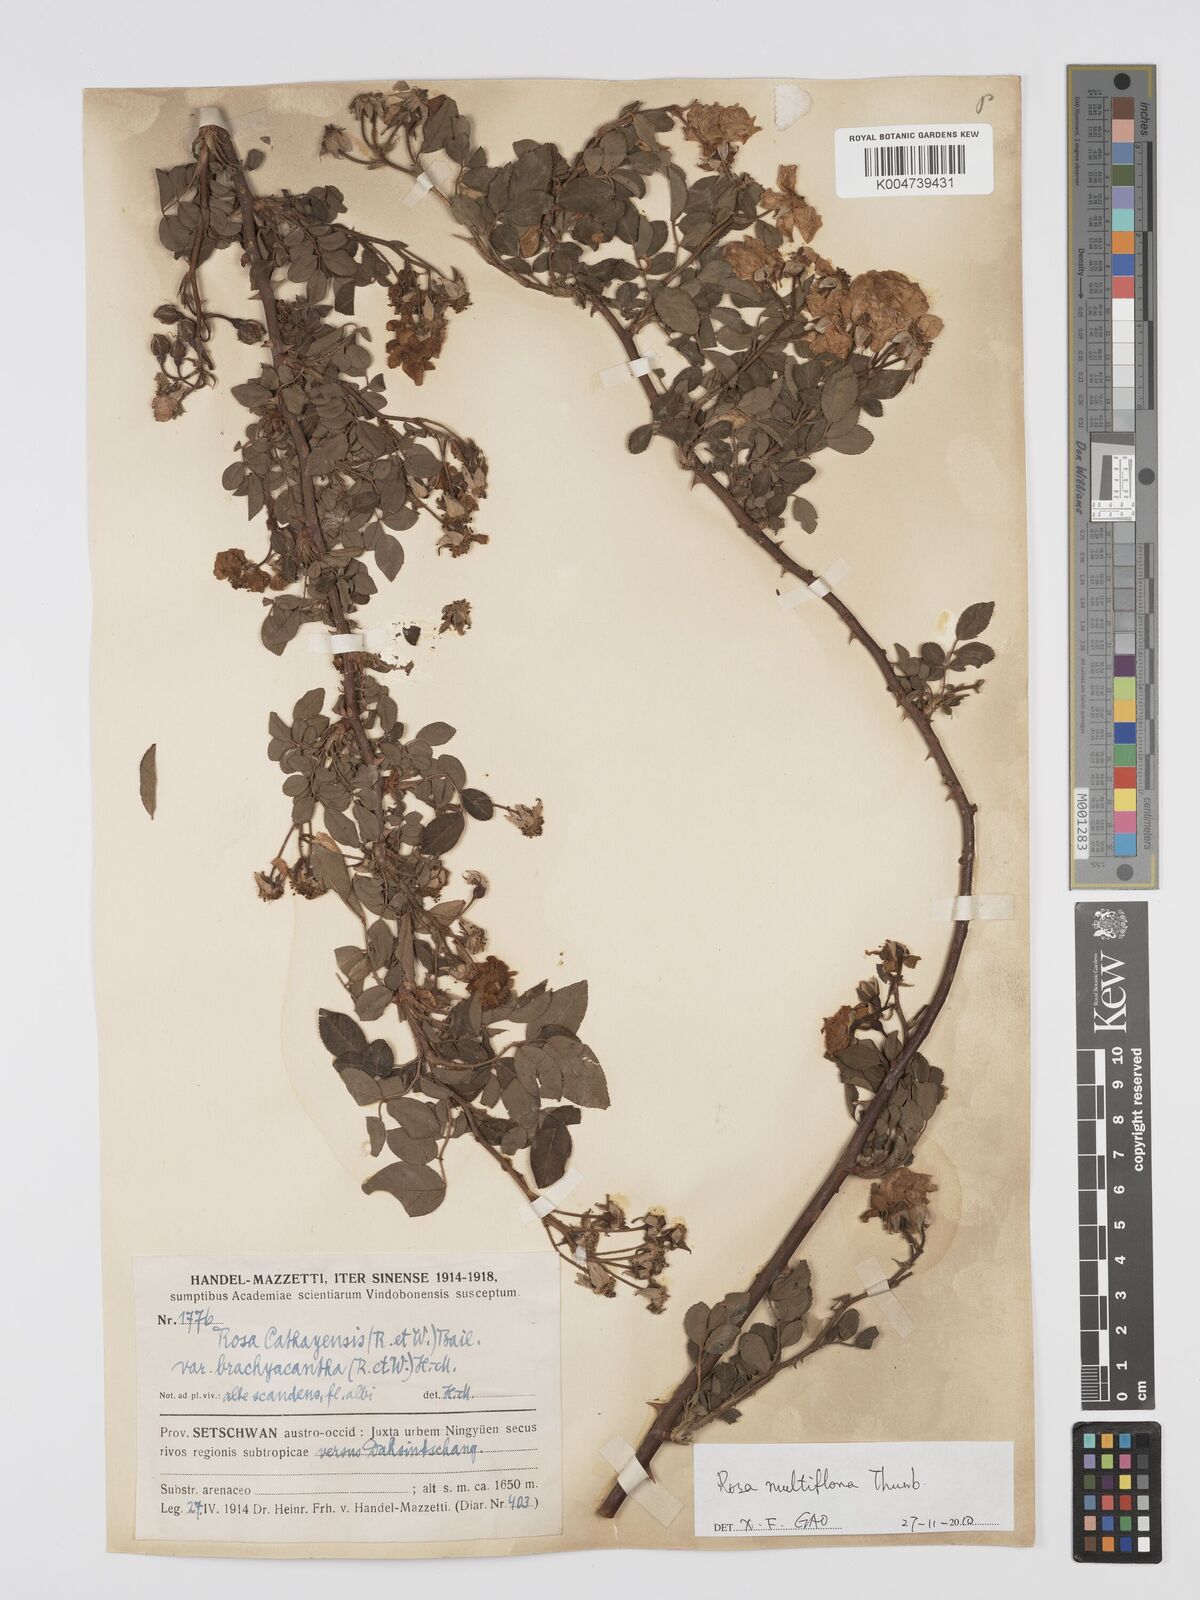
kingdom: Plantae
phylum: Tracheophyta
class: Magnoliopsida
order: Rosales
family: Rosaceae
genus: Rosa
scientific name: Rosa
